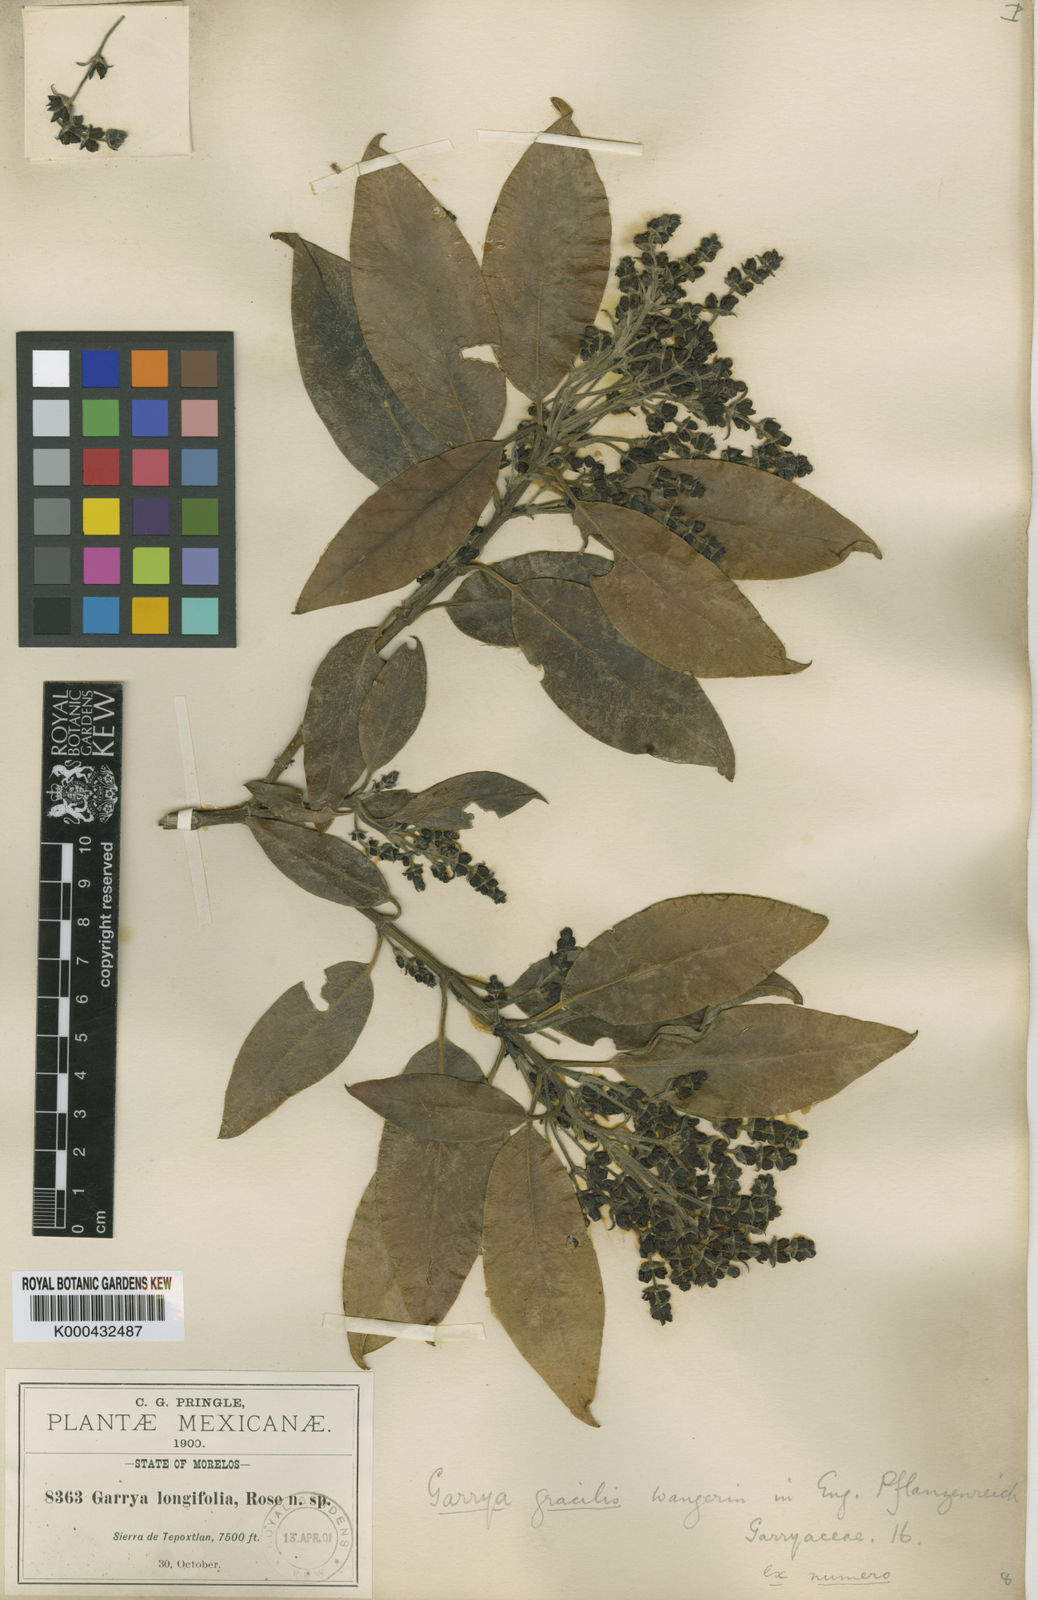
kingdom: Plantae
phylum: Tracheophyta
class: Magnoliopsida
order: Garryales
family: Garryaceae
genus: Garrya
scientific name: Garrya longifolia
